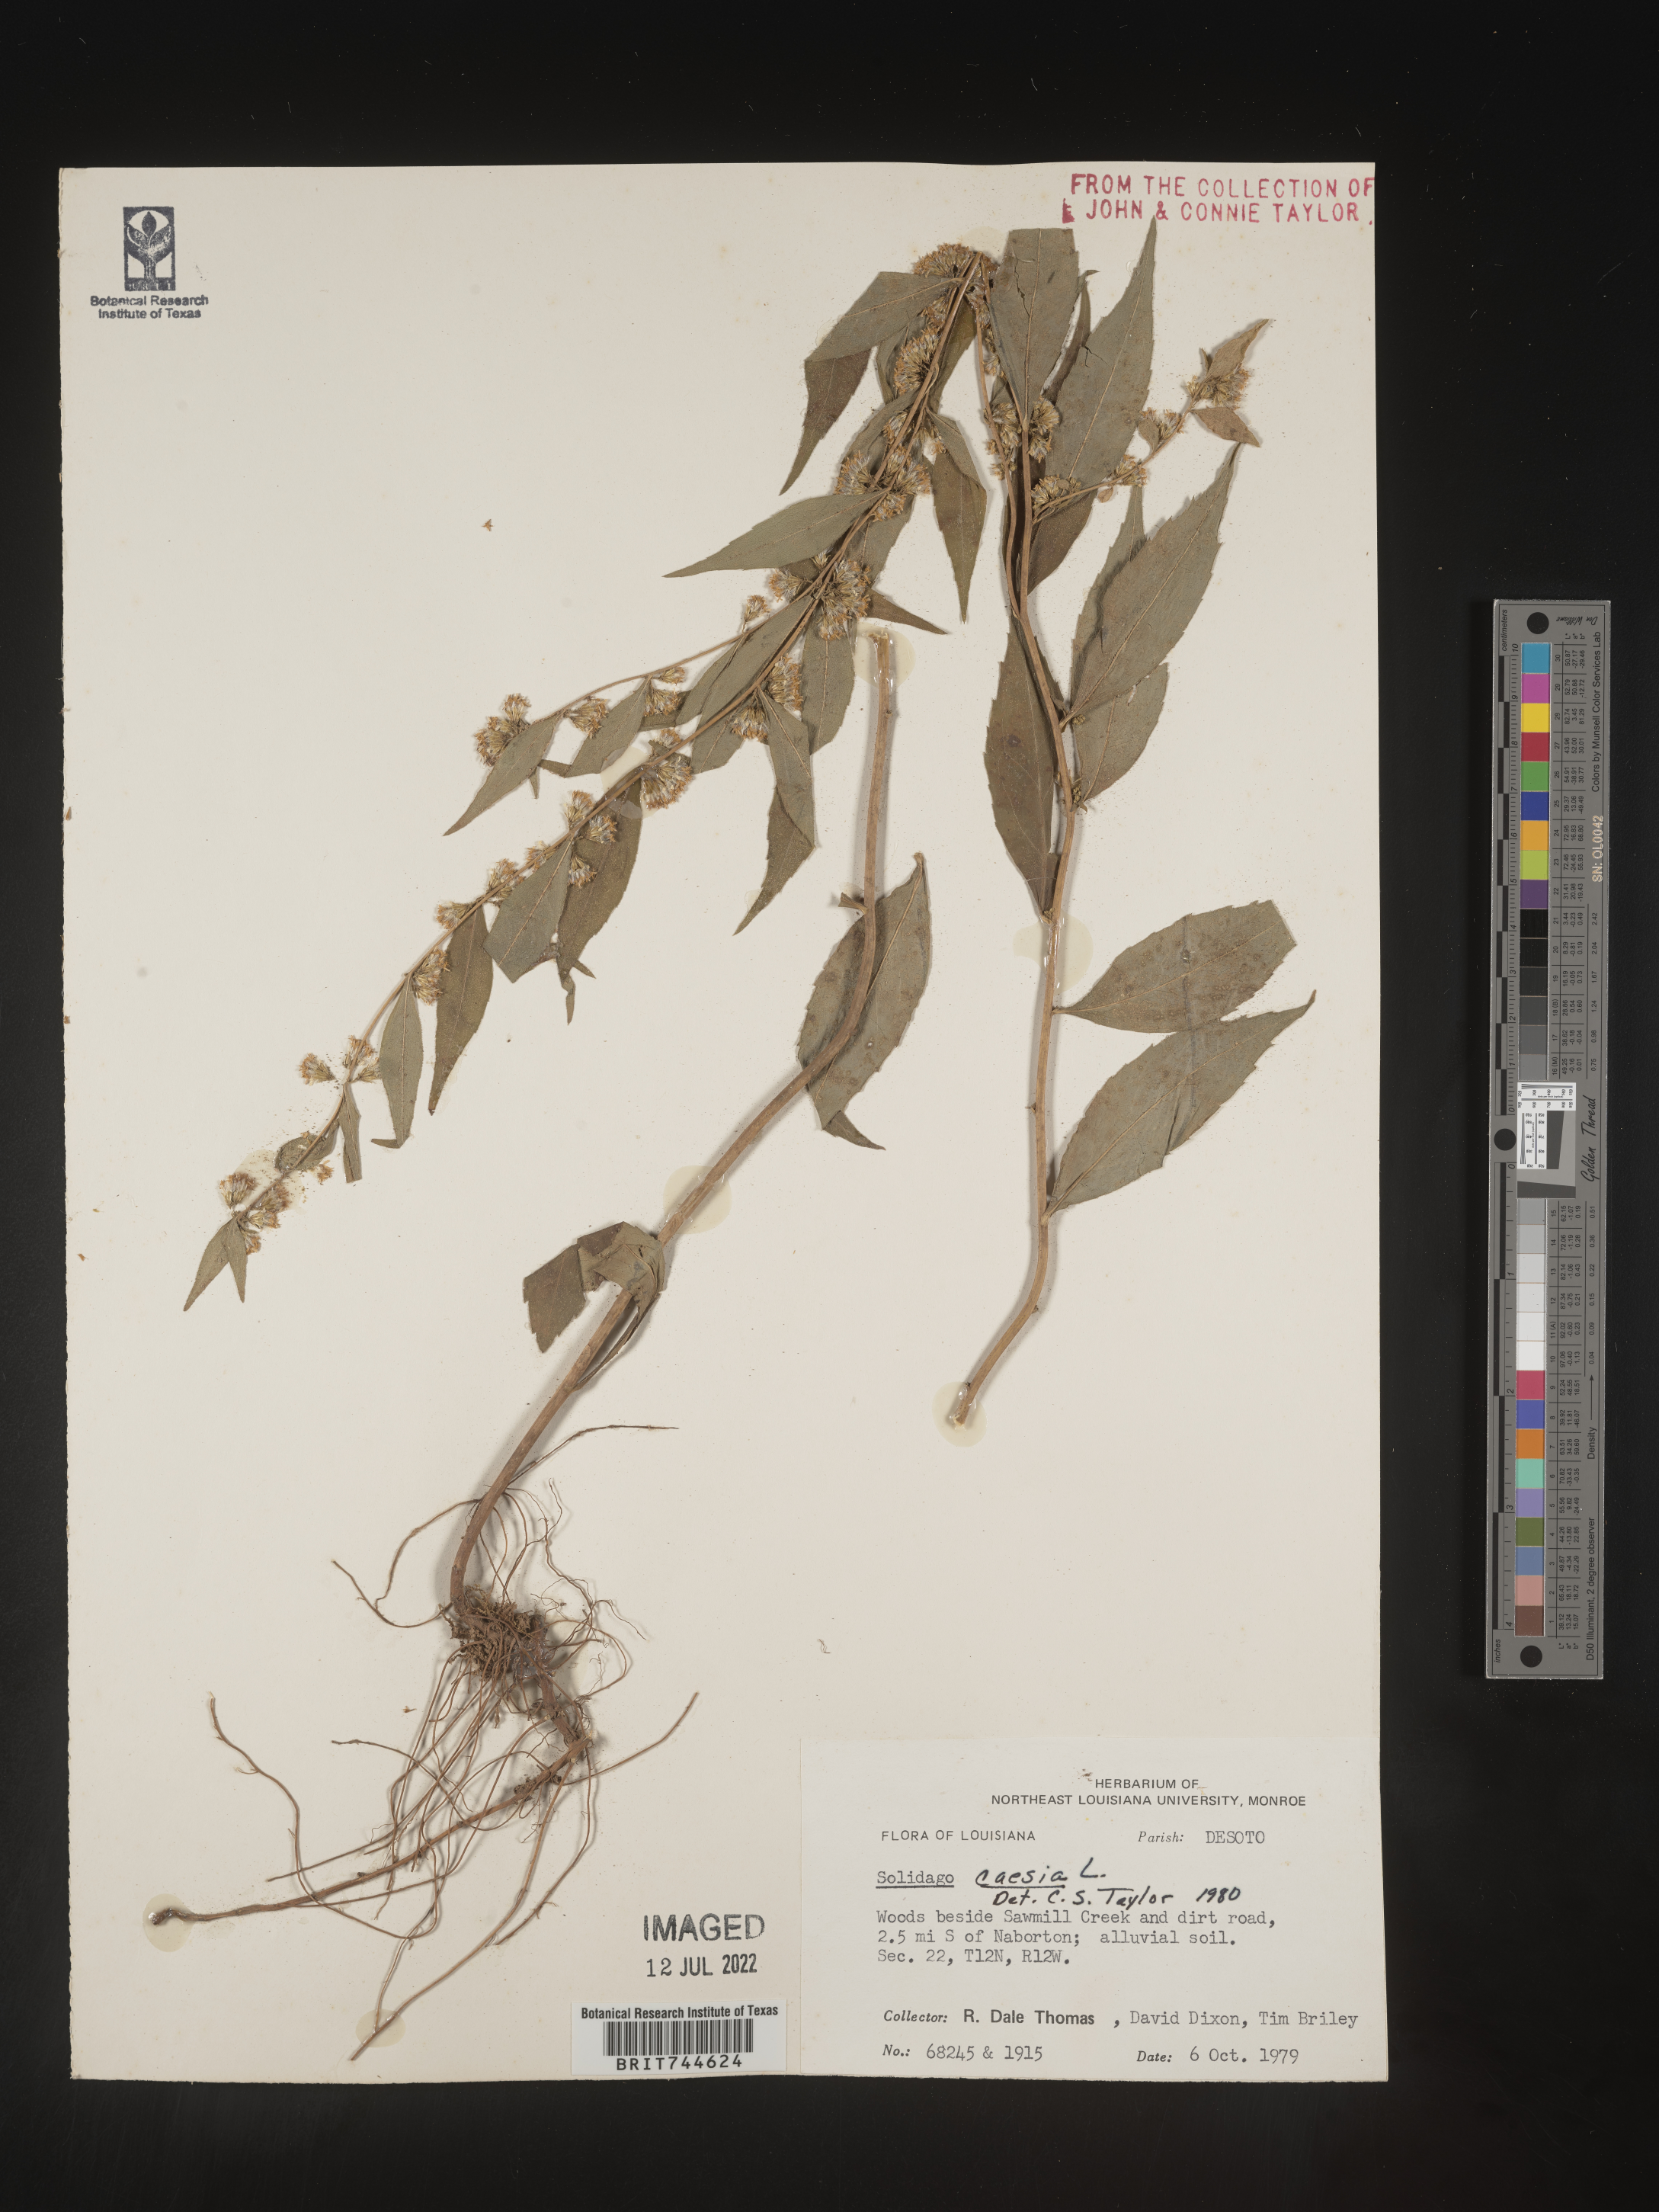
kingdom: Plantae
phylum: Tracheophyta
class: Magnoliopsida
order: Asterales
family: Asteraceae
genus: Solidago
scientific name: Solidago caesia
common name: Woodland goldenrod
